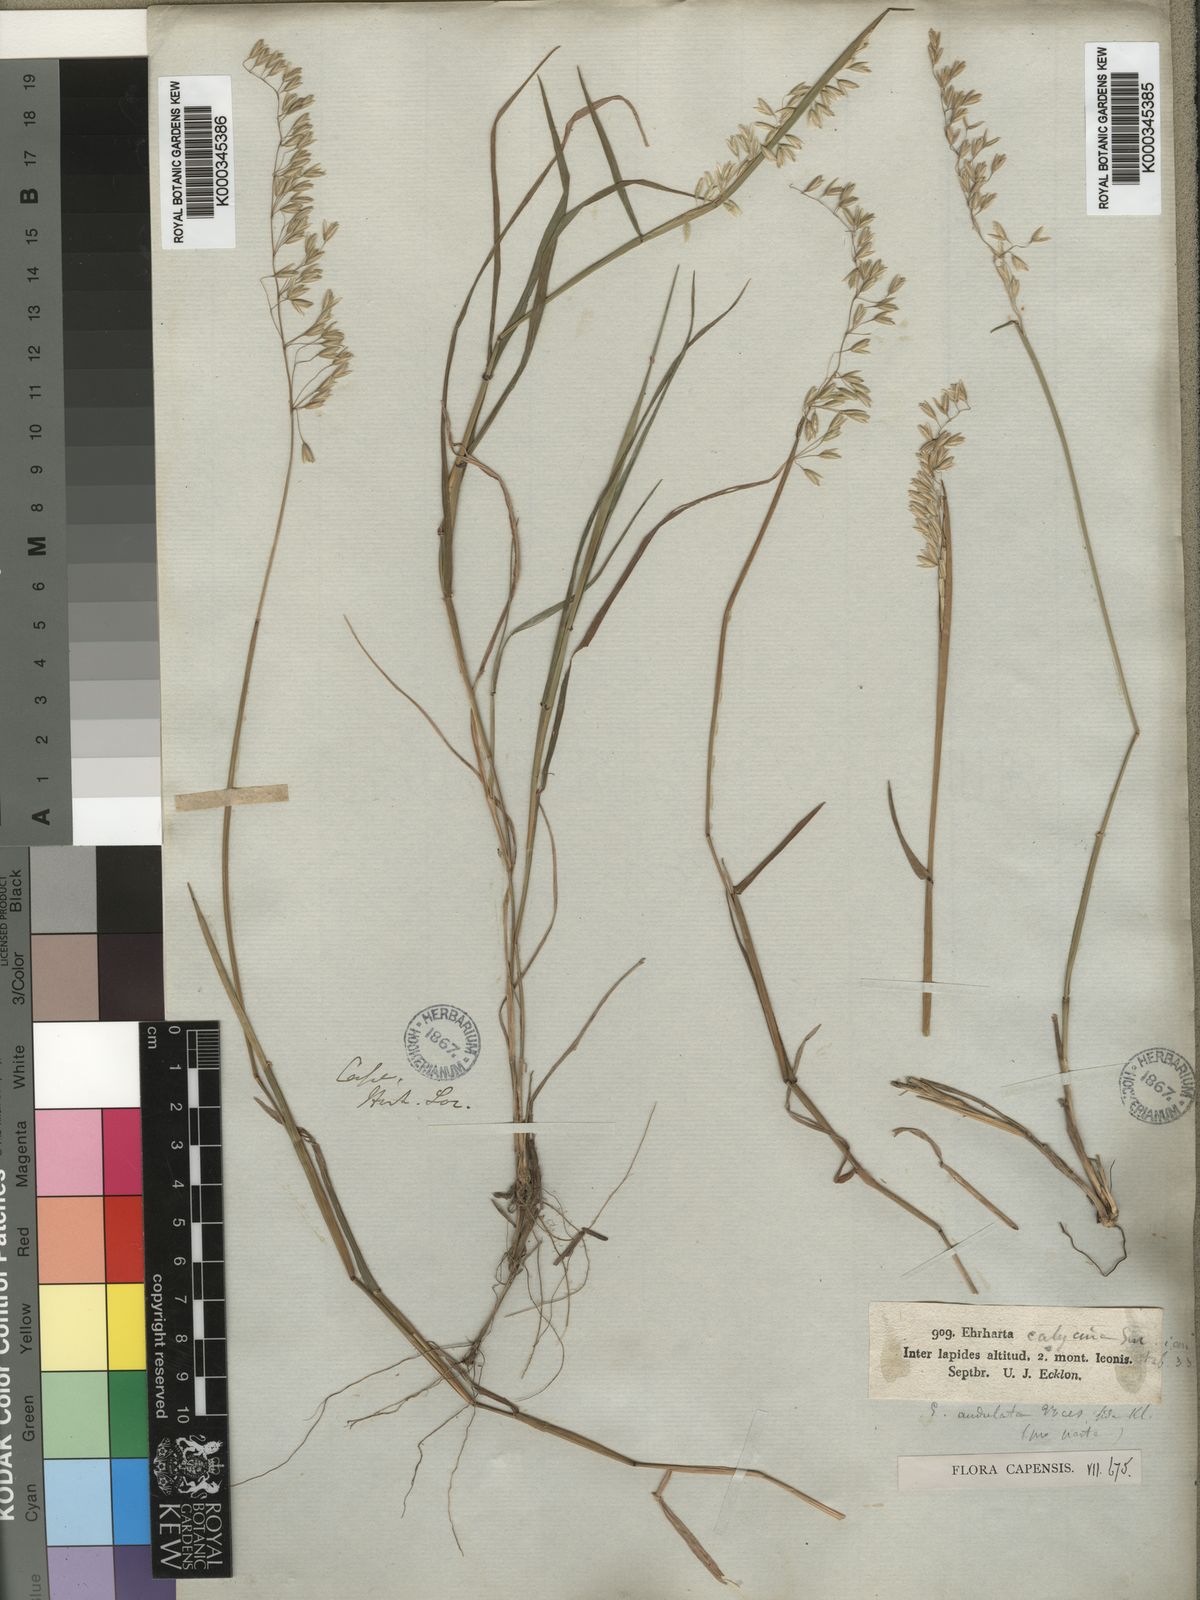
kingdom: Plantae
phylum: Tracheophyta
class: Liliopsida
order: Poales
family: Poaceae
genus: Ehrharta
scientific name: Ehrharta calycina
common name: Perennial veldtgrass
